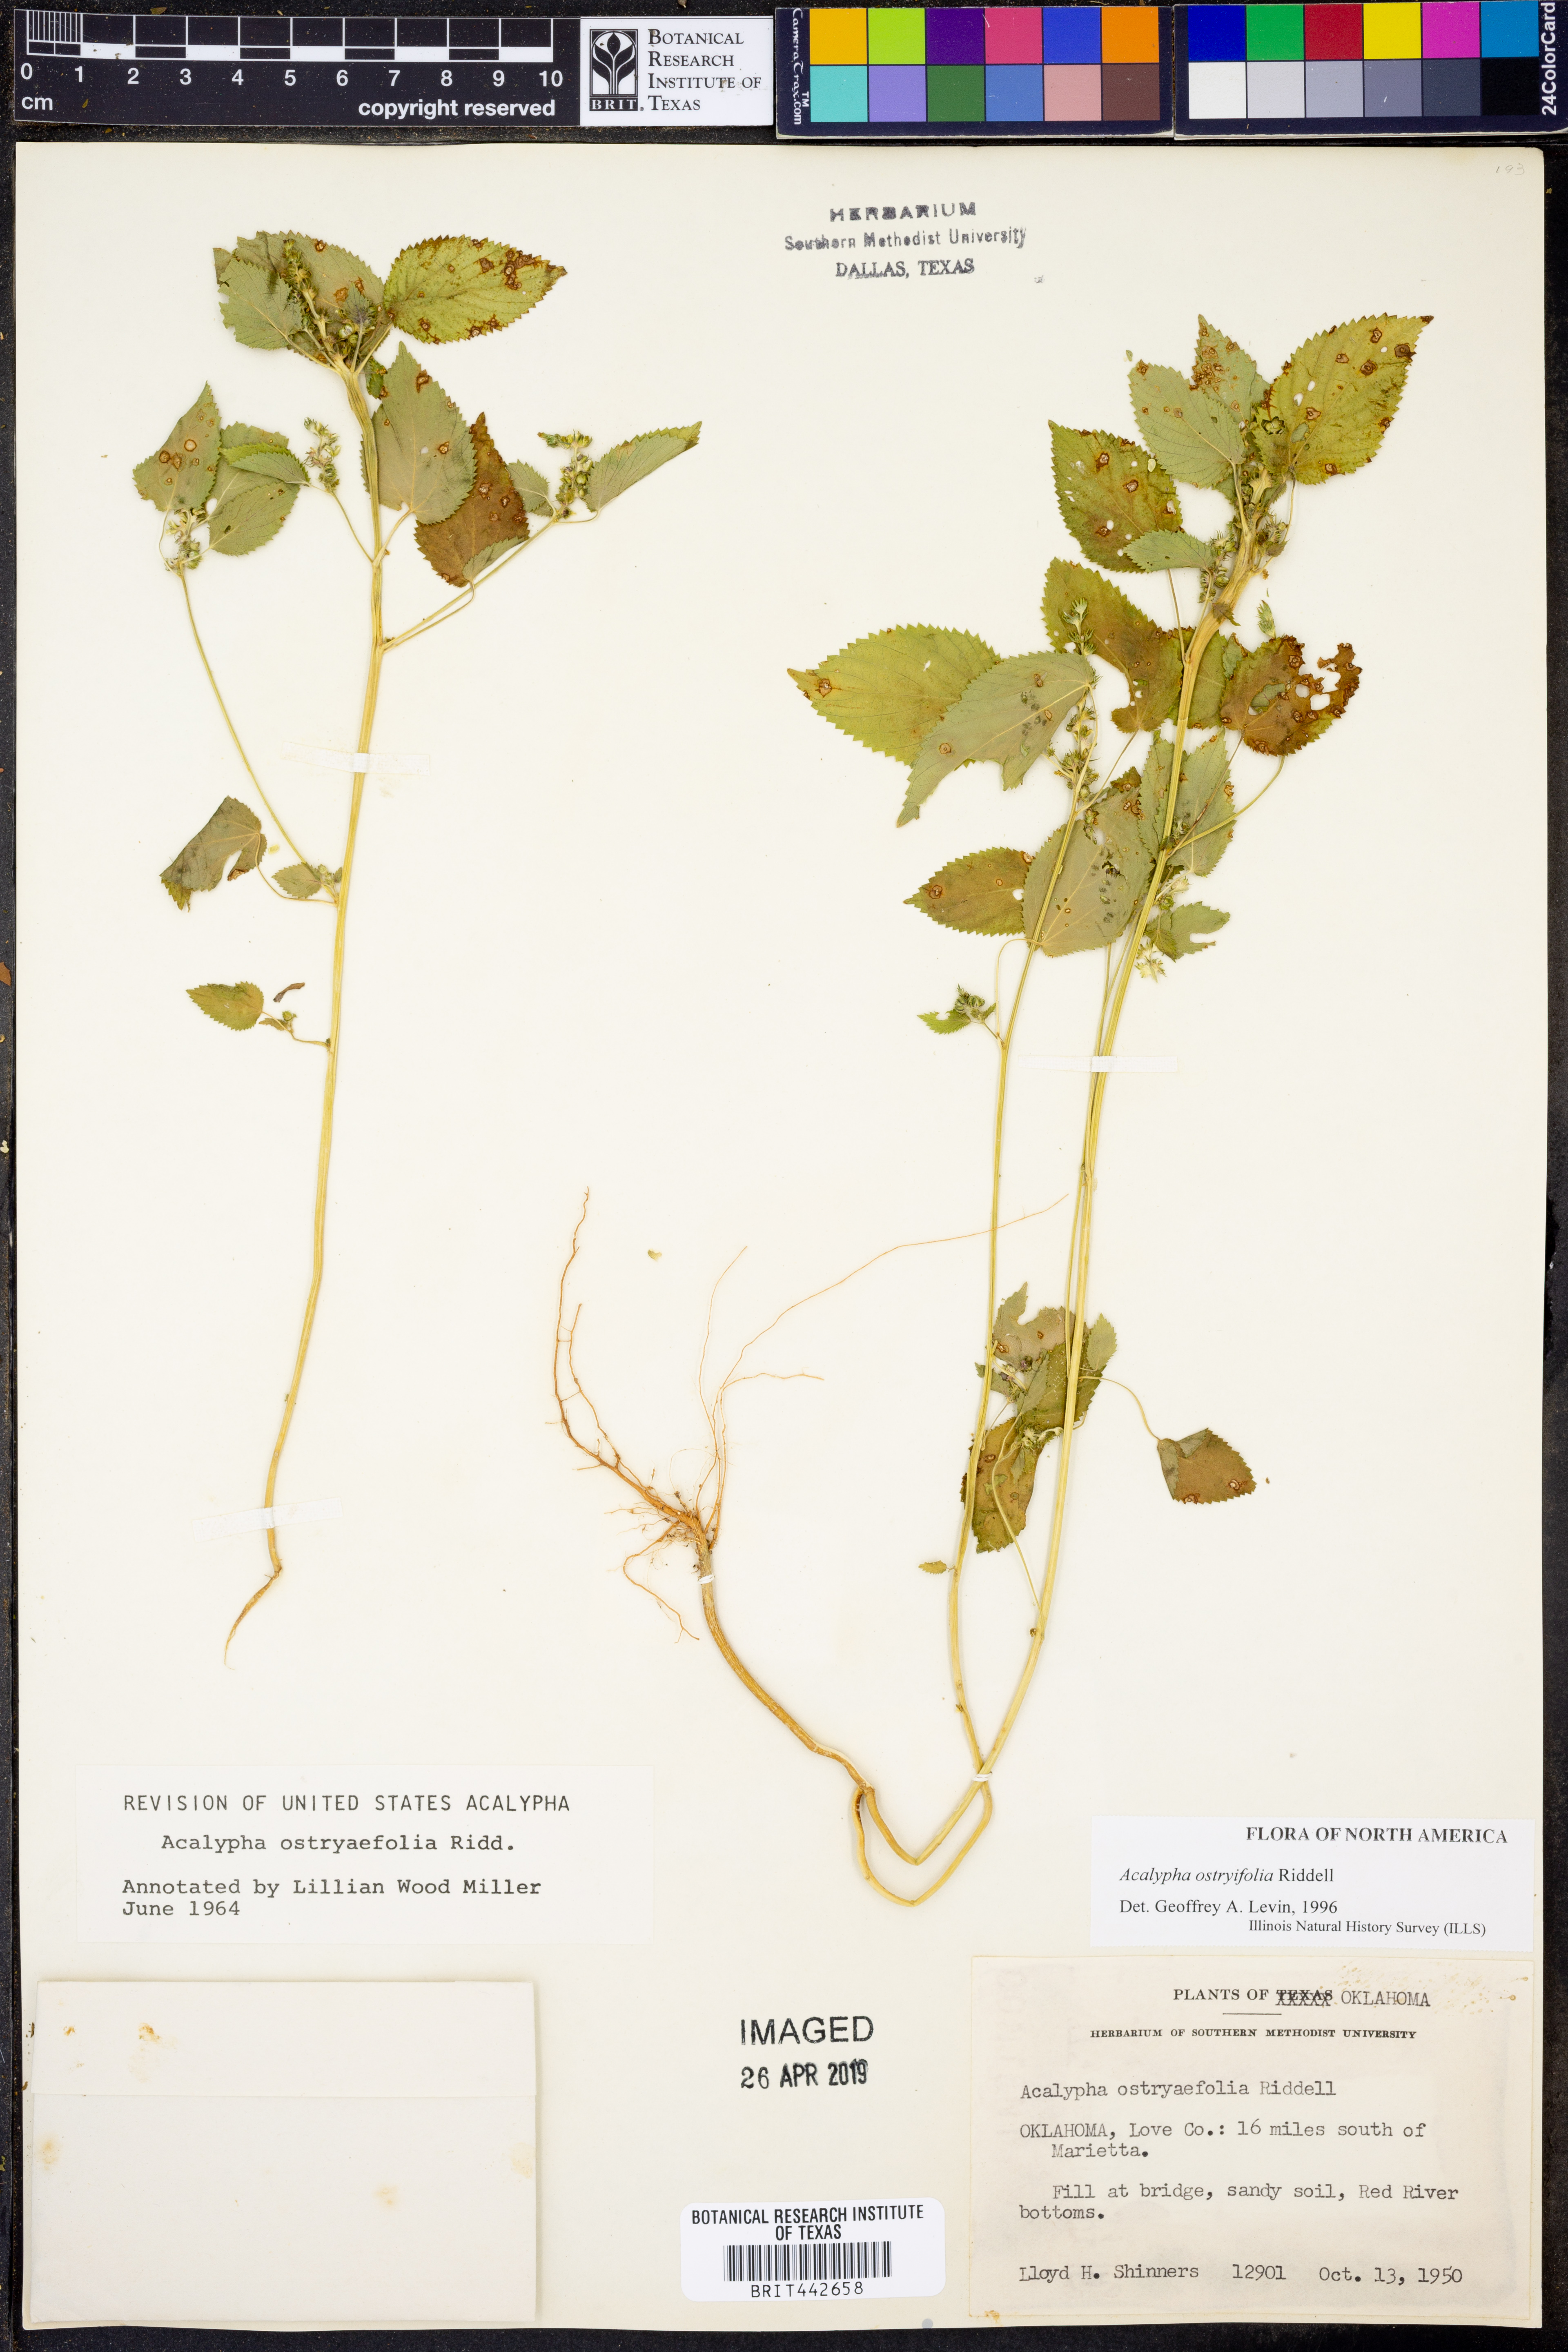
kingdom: Plantae
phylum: Tracheophyta
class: Magnoliopsida
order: Malpighiales
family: Euphorbiaceae
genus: Acalypha
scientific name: Acalypha persimilis
